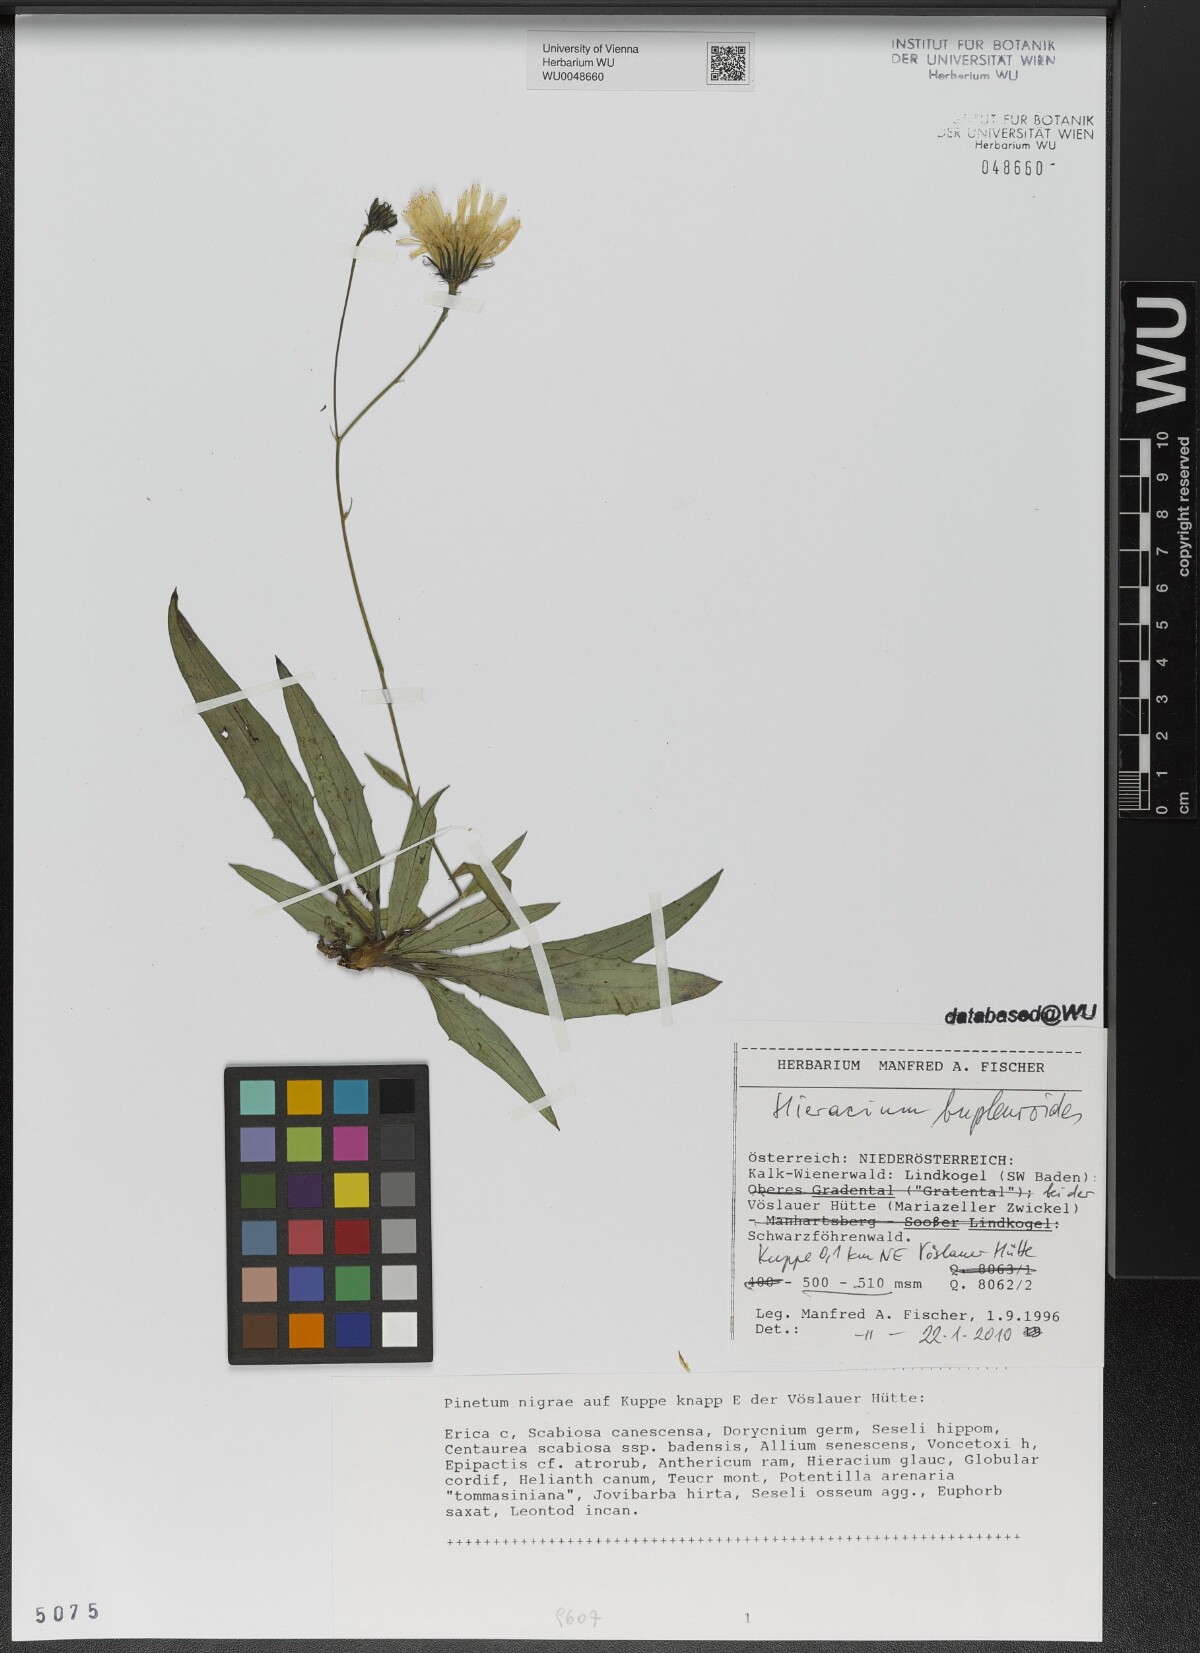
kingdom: Plantae
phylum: Tracheophyta
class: Magnoliopsida
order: Asterales
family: Asteraceae
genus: Hieracium
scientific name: Hieracium bupleuroides
